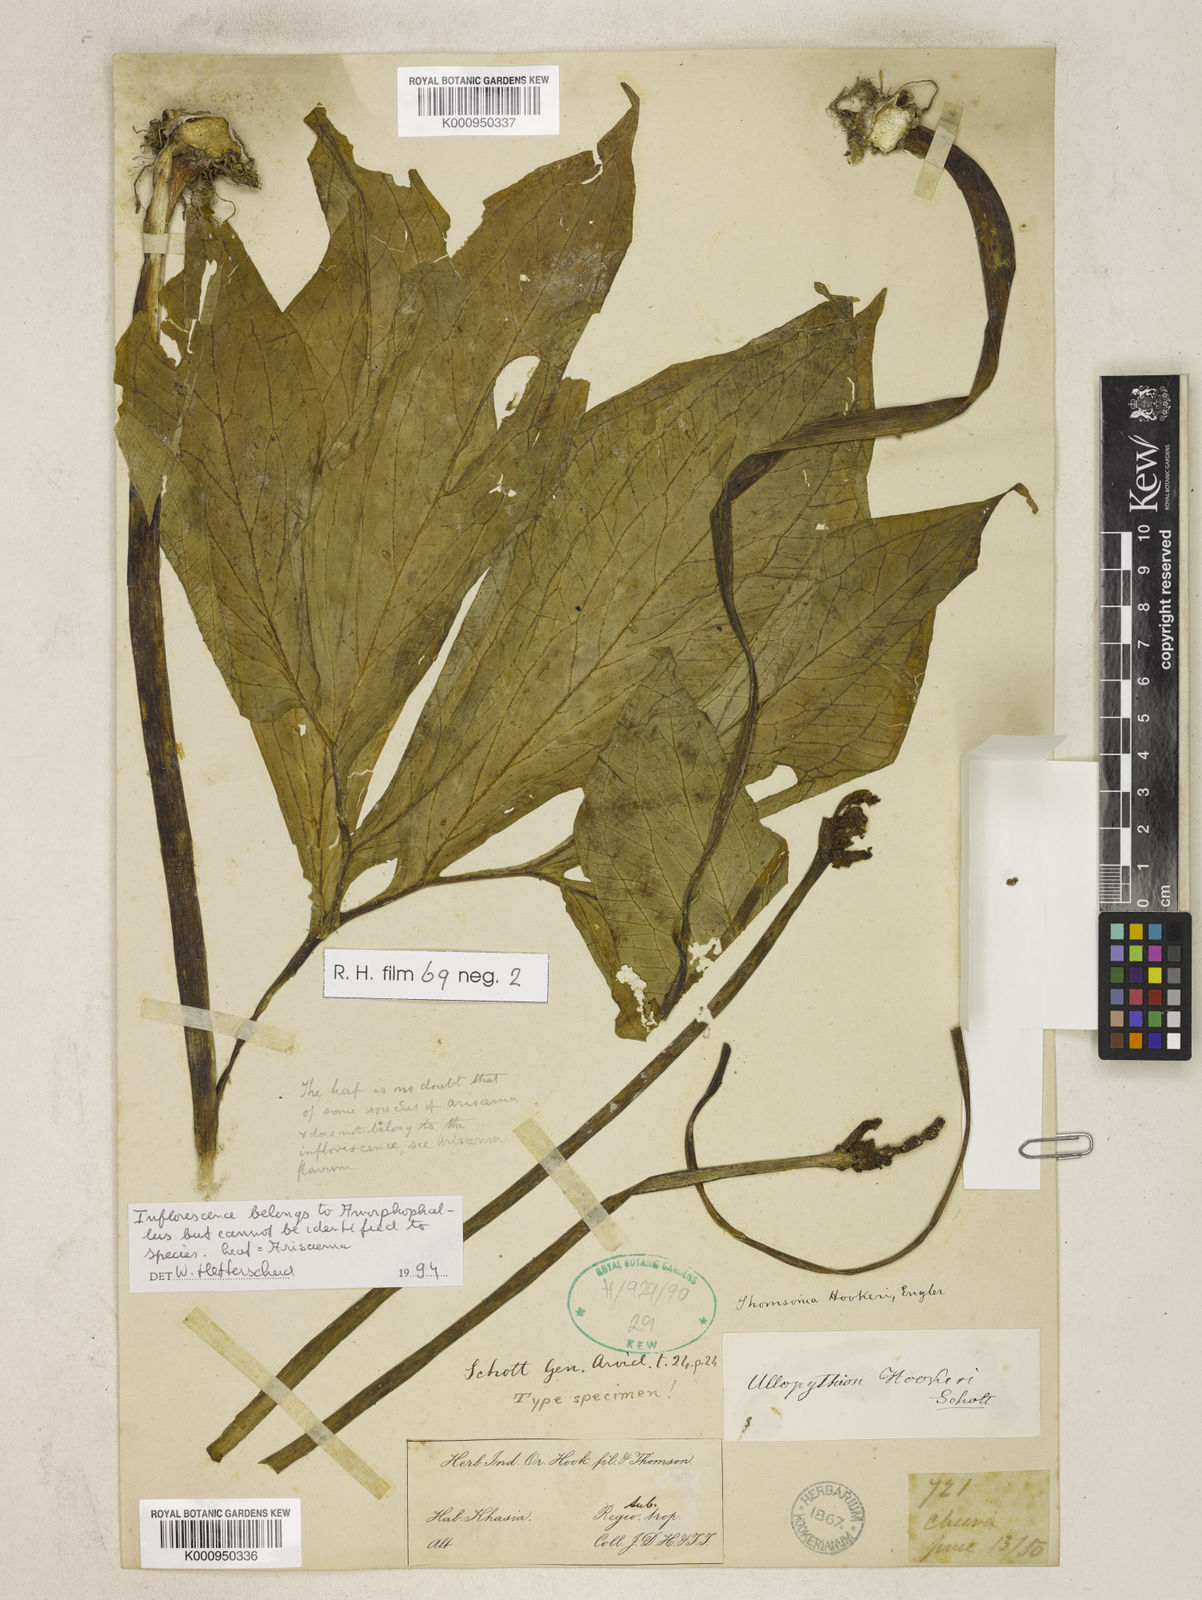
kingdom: Plantae
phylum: Tracheophyta
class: Liliopsida
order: Alismatales
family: Araceae
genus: Amorphophallus
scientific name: Amorphophallus
